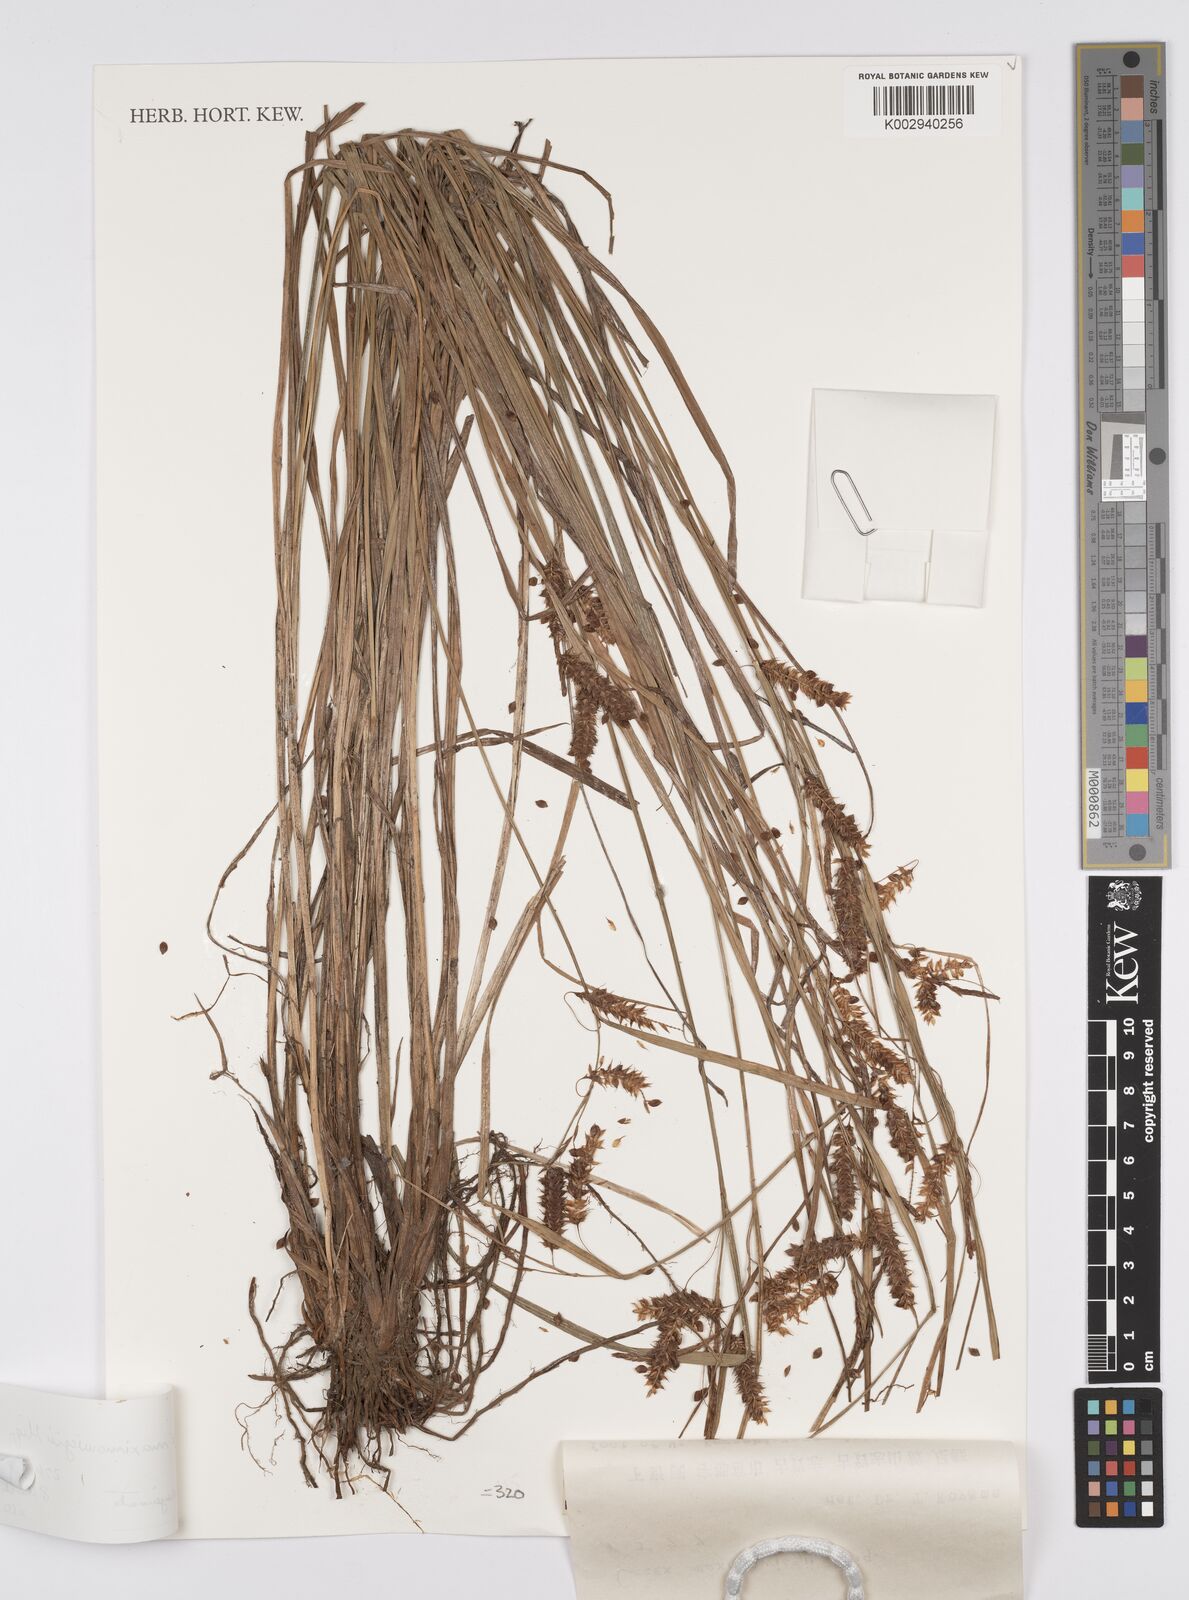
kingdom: Plantae
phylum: Tracheophyta
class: Liliopsida
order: Poales
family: Cyperaceae
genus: Carex
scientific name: Carex pruinosa
